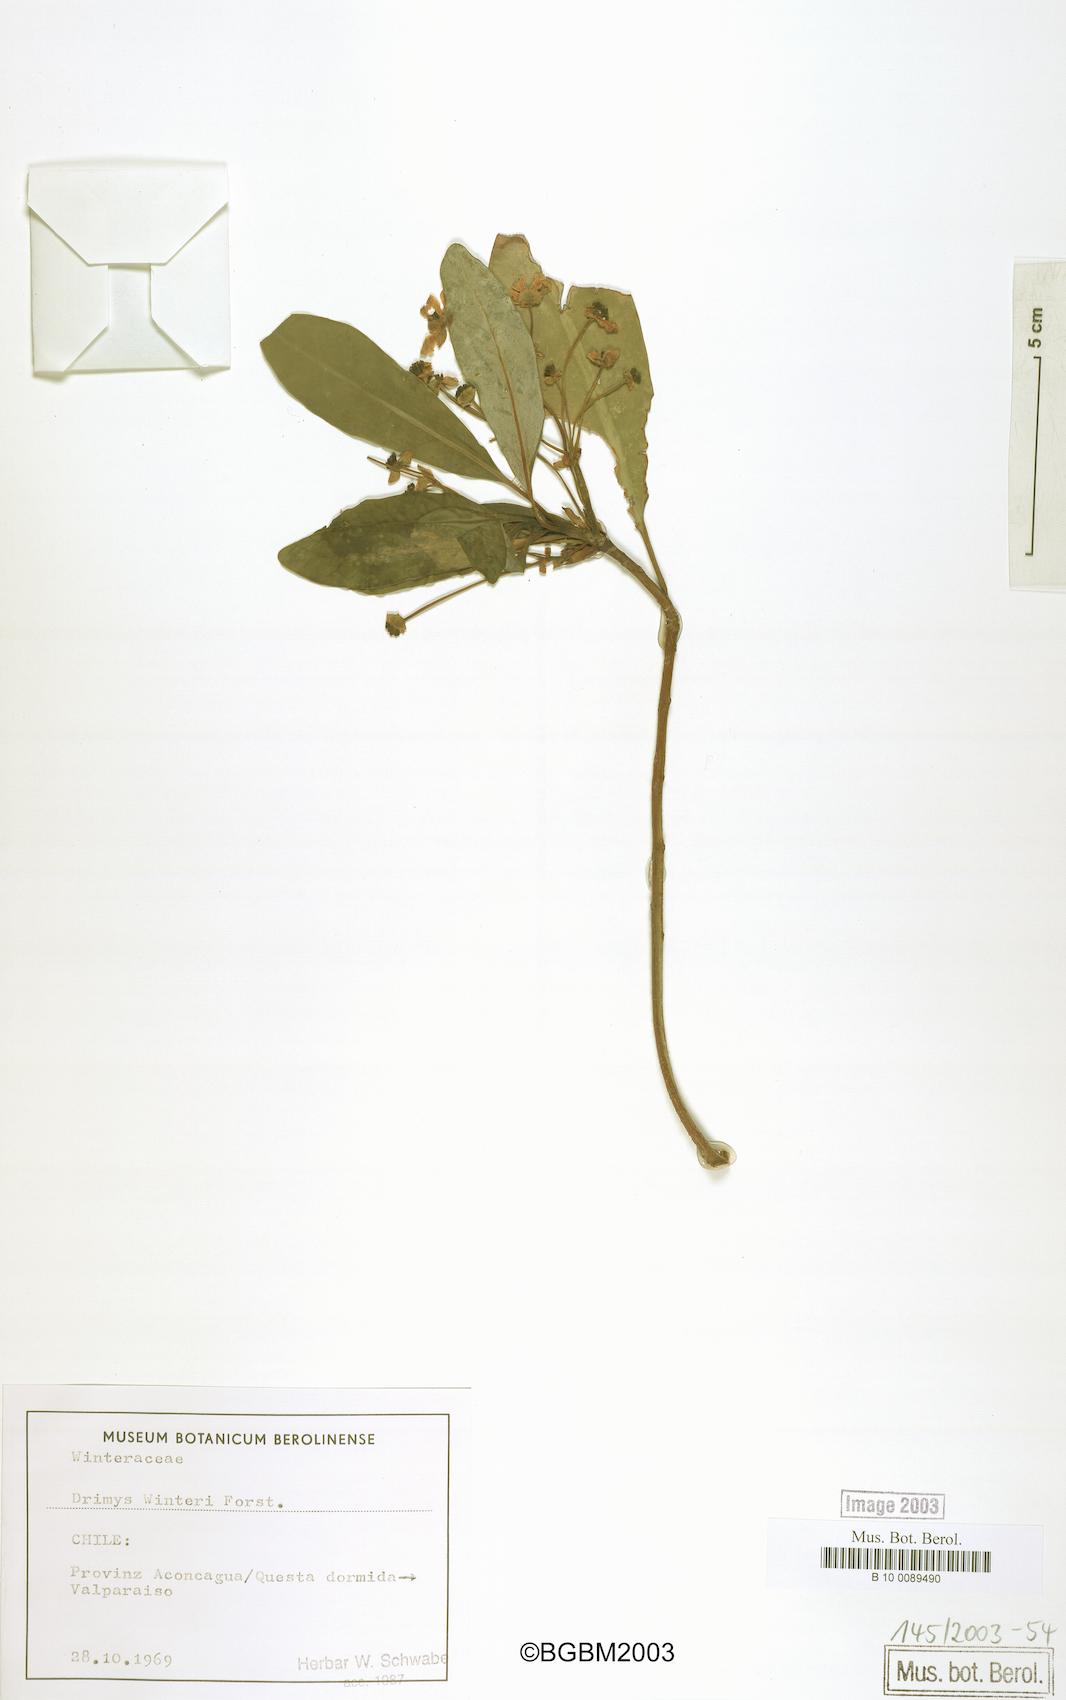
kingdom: Plantae
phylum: Tracheophyta
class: Magnoliopsida
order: Canellales
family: Winteraceae
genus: Drimys
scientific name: Drimys winteri
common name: Winter's-bark
